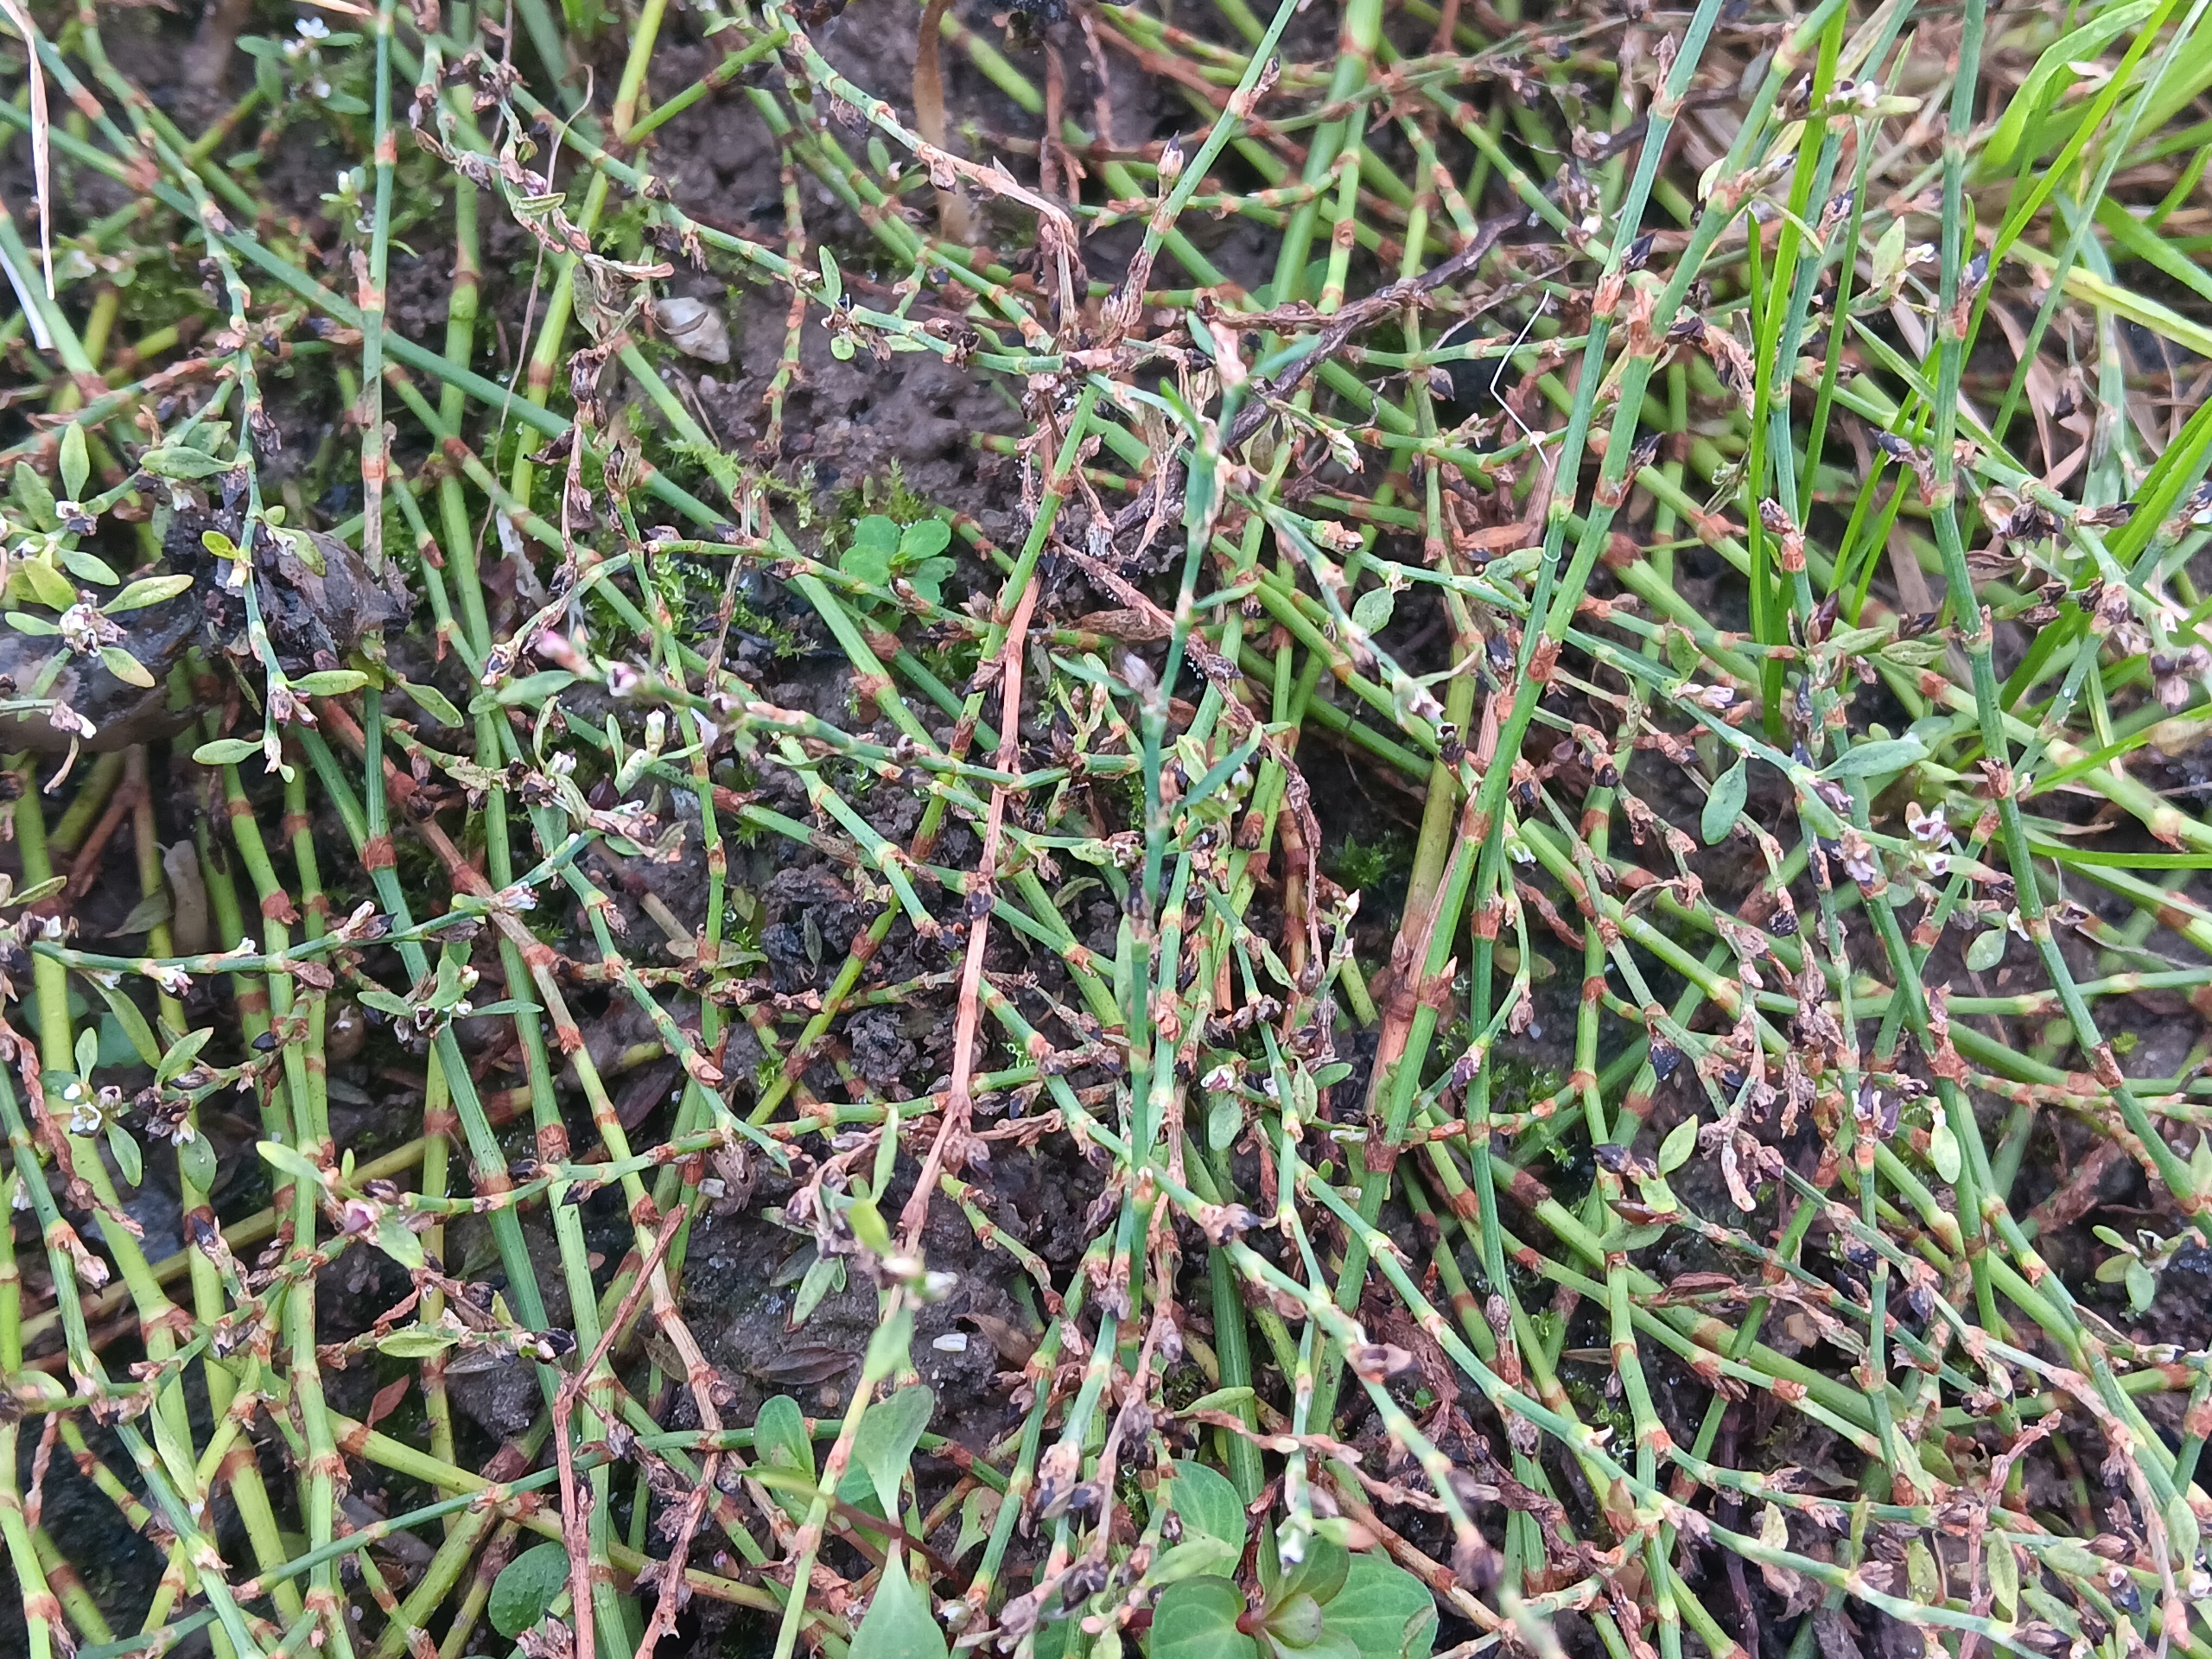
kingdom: Plantae
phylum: Tracheophyta
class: Magnoliopsida
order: Caryophyllales
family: Polygonaceae
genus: Polygonum
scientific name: Polygonum aviculare
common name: Vej-pileurt
